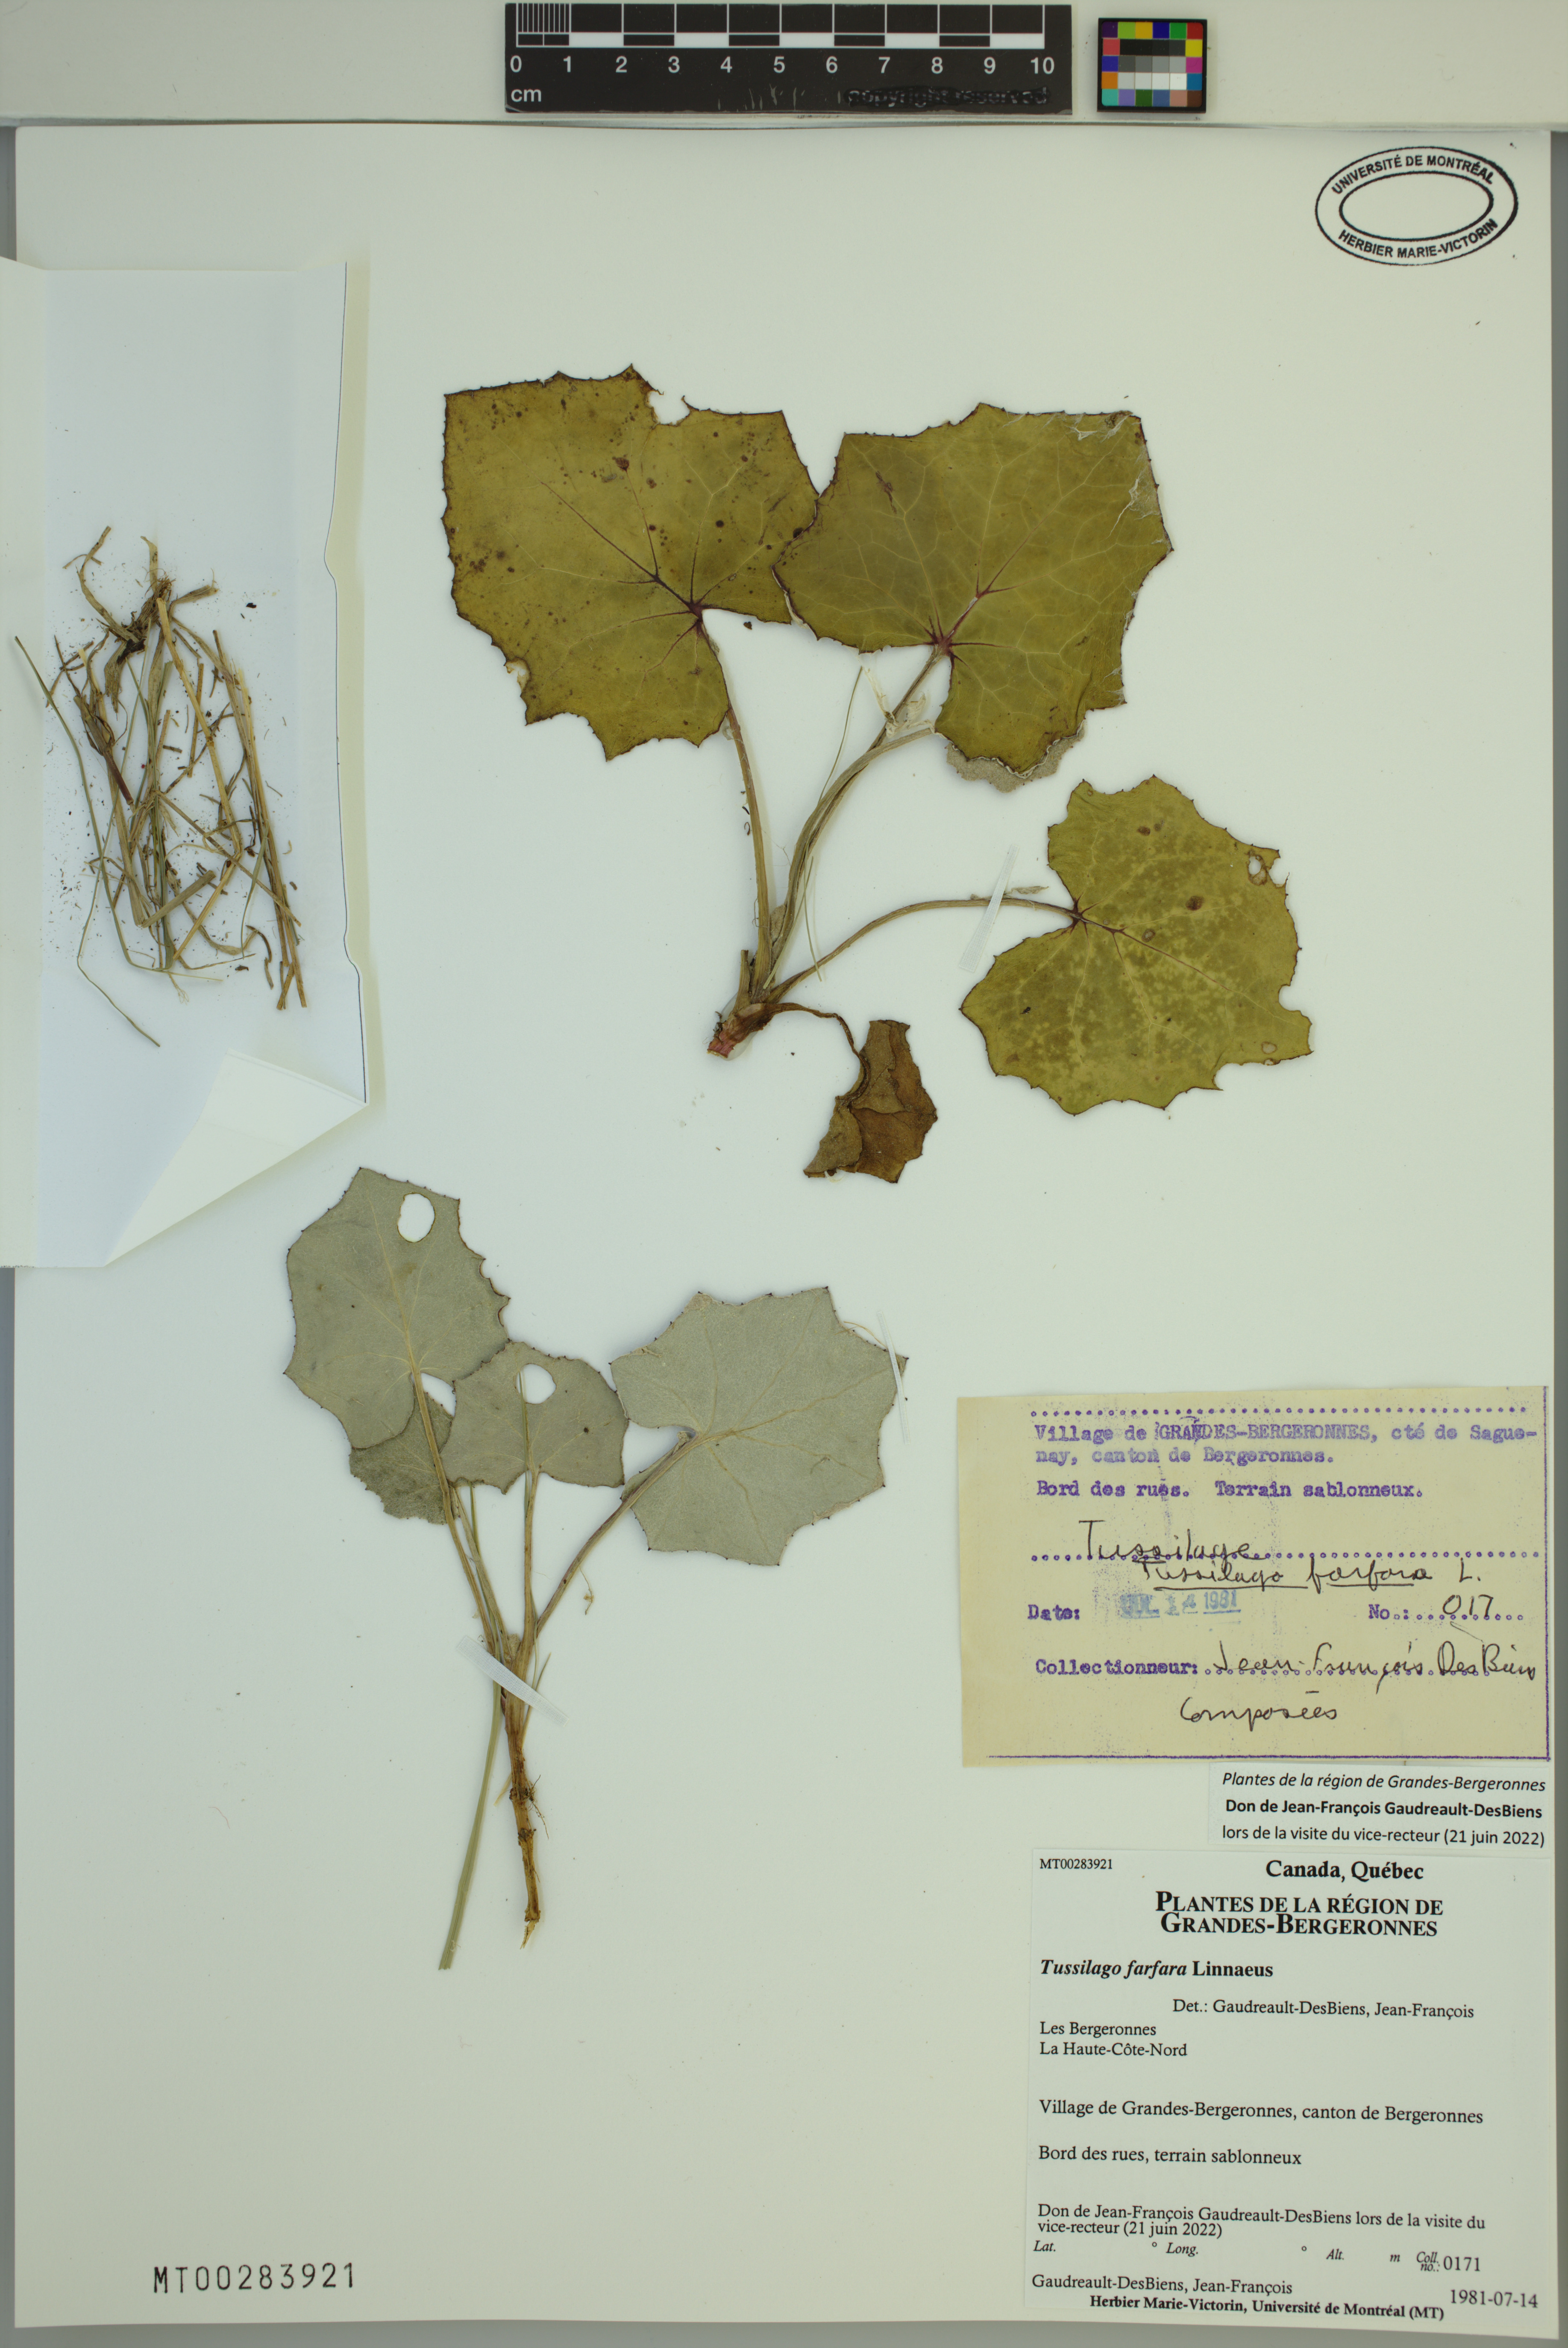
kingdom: Plantae
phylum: Tracheophyta
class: Magnoliopsida
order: Asterales
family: Asteraceae
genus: Tussilago
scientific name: Tussilago farfara
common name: Coltsfoot
